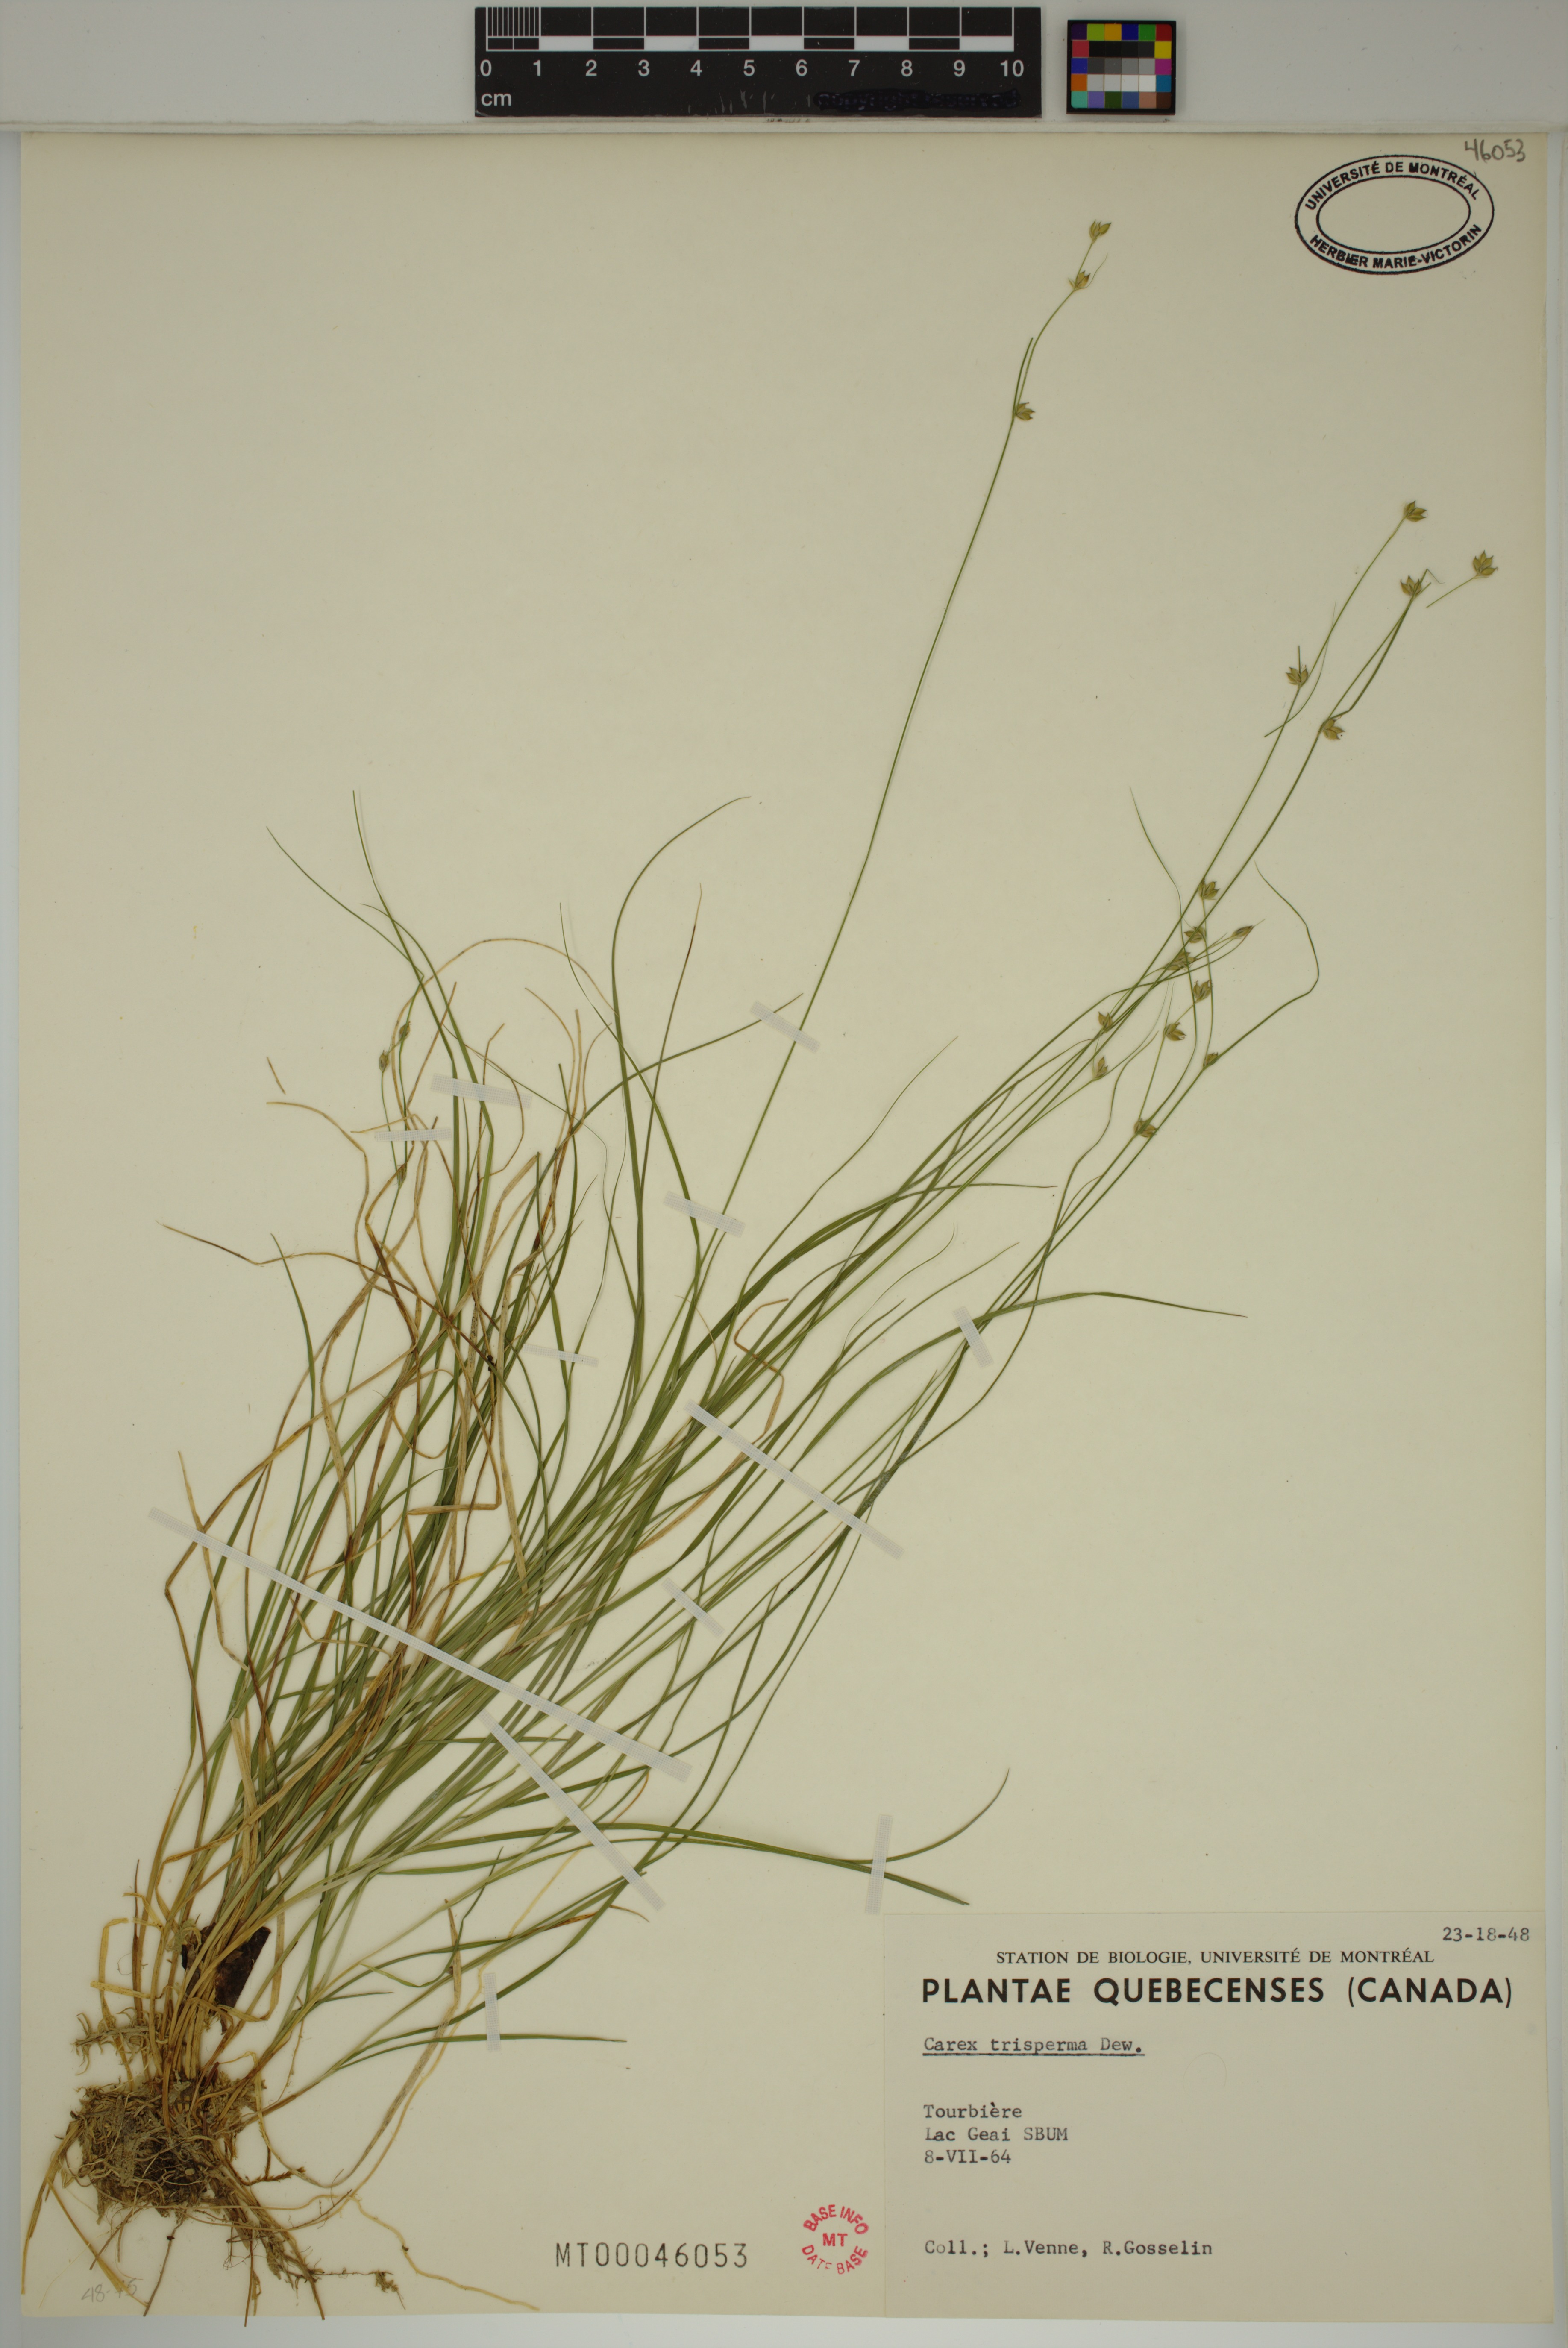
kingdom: Plantae
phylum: Tracheophyta
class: Liliopsida
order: Poales
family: Cyperaceae
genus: Carex
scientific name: Carex trisperma
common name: Three-seeded sedge
